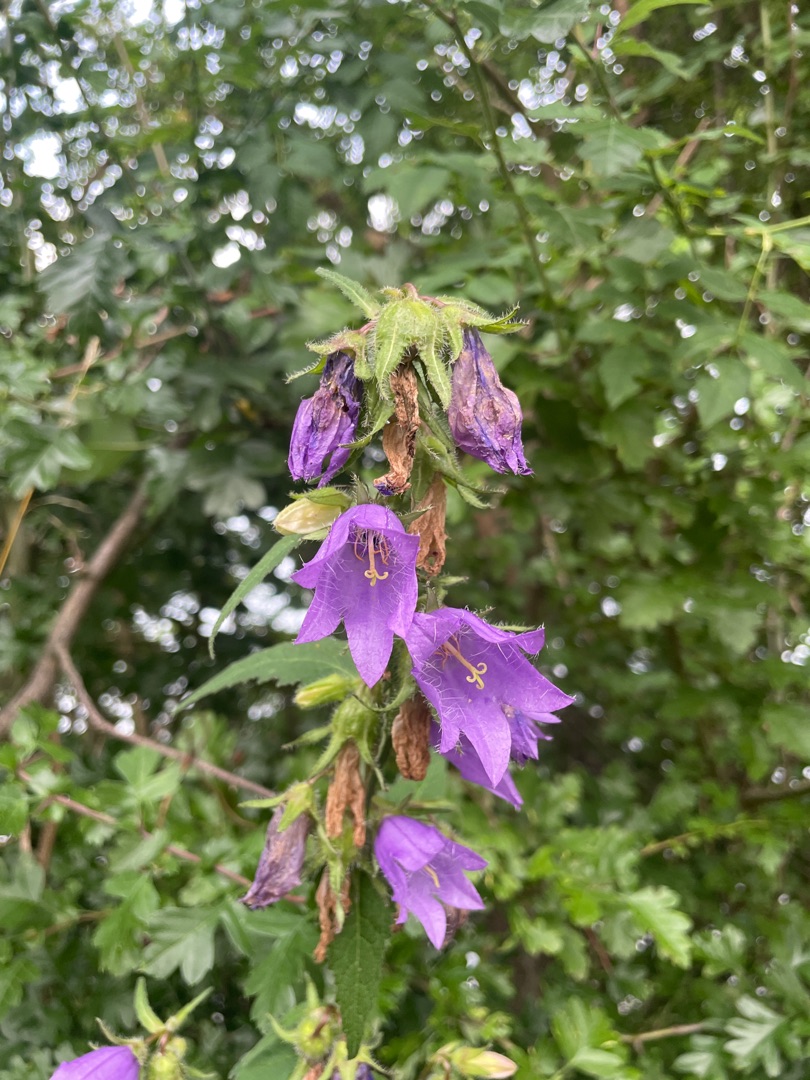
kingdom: Plantae
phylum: Tracheophyta
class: Magnoliopsida
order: Asterales
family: Campanulaceae
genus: Campanula
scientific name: Campanula trachelium
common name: Nælde-klokke
